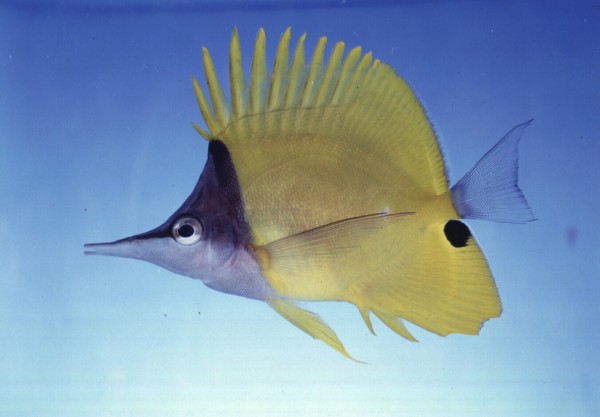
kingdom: Animalia
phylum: Chordata
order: Perciformes
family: Chaetodontidae
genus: Forcipiger
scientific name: Forcipiger flavissimus
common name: Forcepsfish
